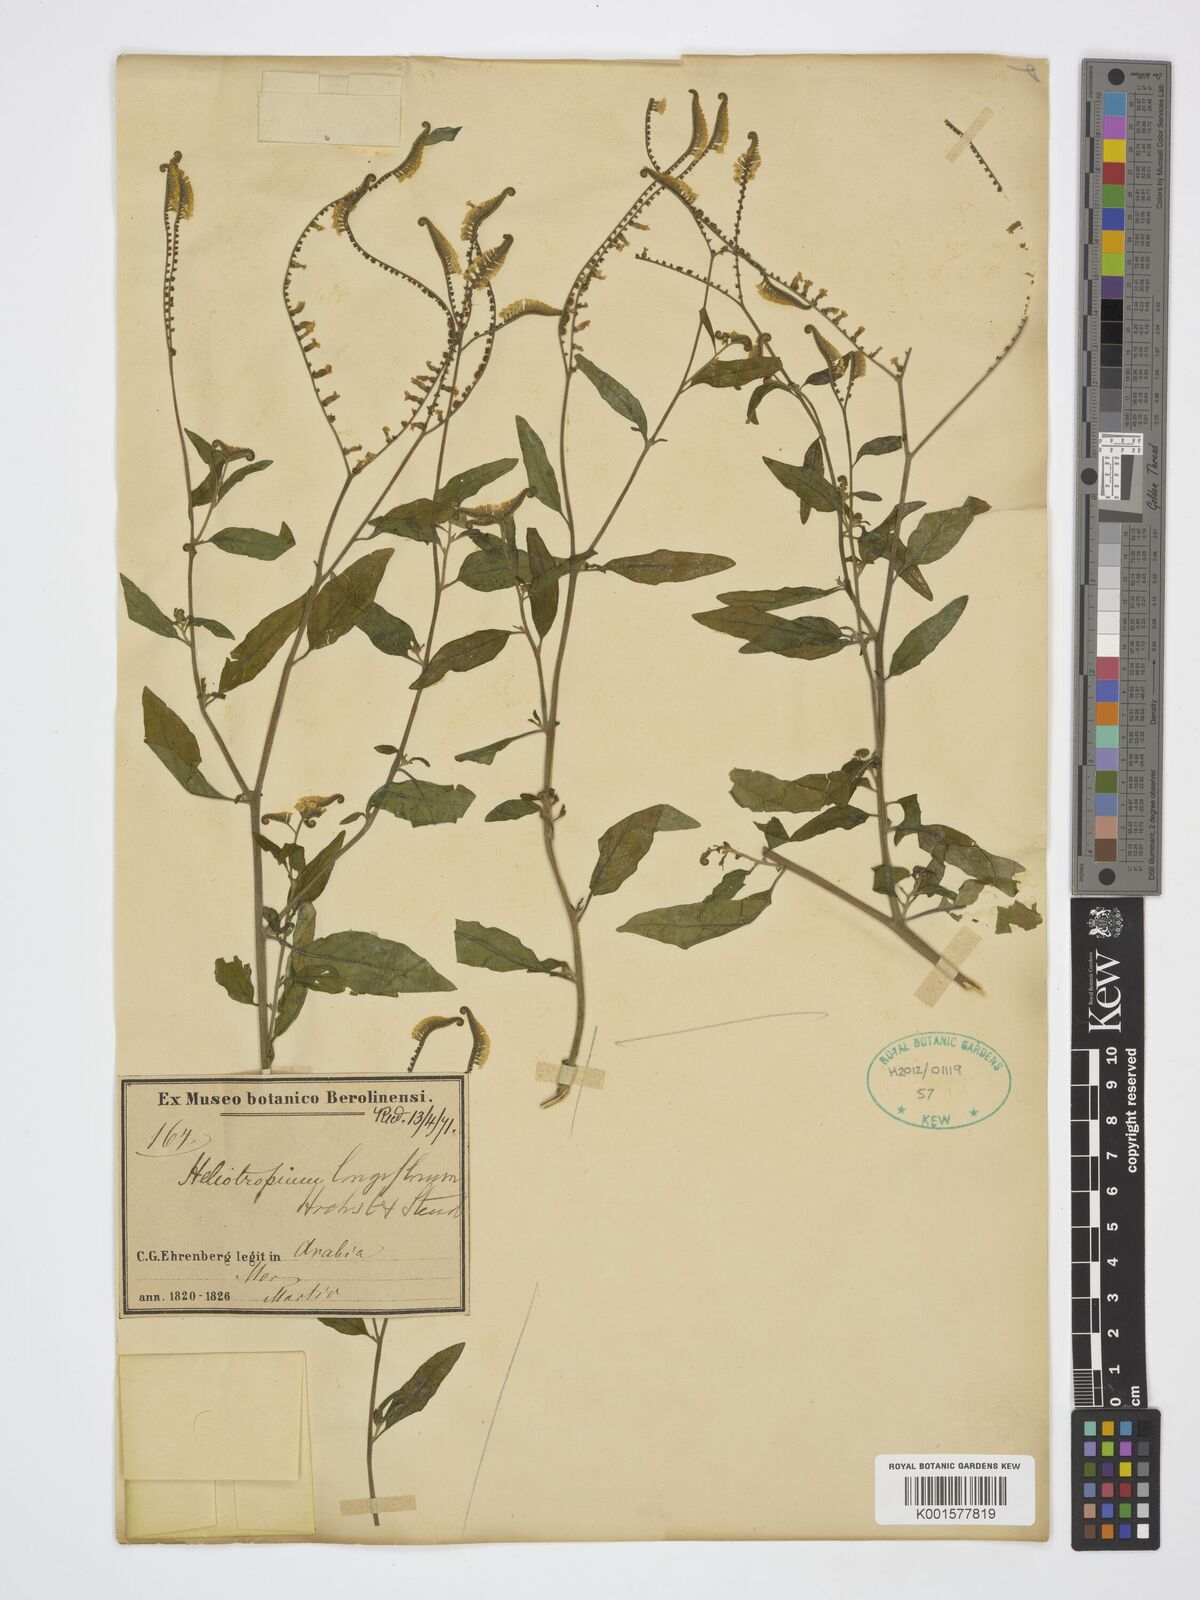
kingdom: Plantae
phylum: Tracheophyta
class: Magnoliopsida
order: Boraginales
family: Heliotropiaceae
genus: Heliotropium
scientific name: Heliotropium longiflorum
